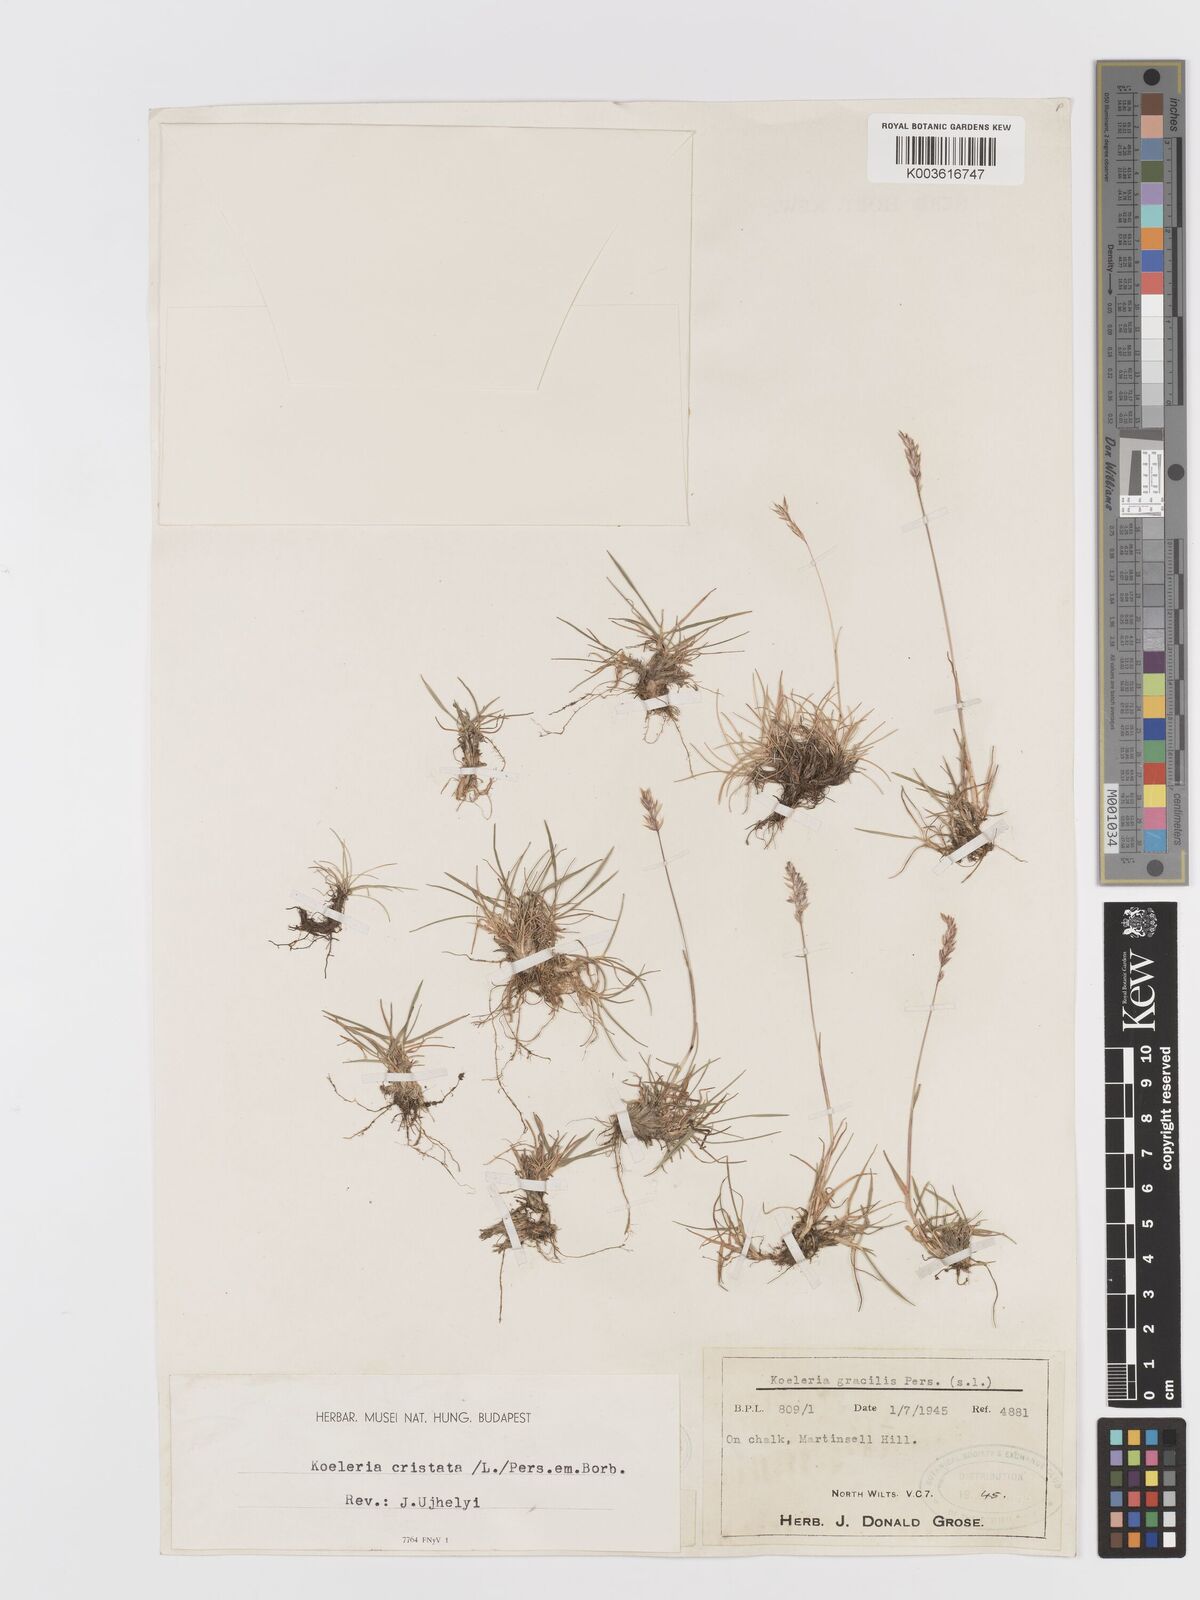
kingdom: Plantae
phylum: Tracheophyta
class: Liliopsida
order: Poales
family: Poaceae
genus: Koeleria
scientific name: Koeleria
